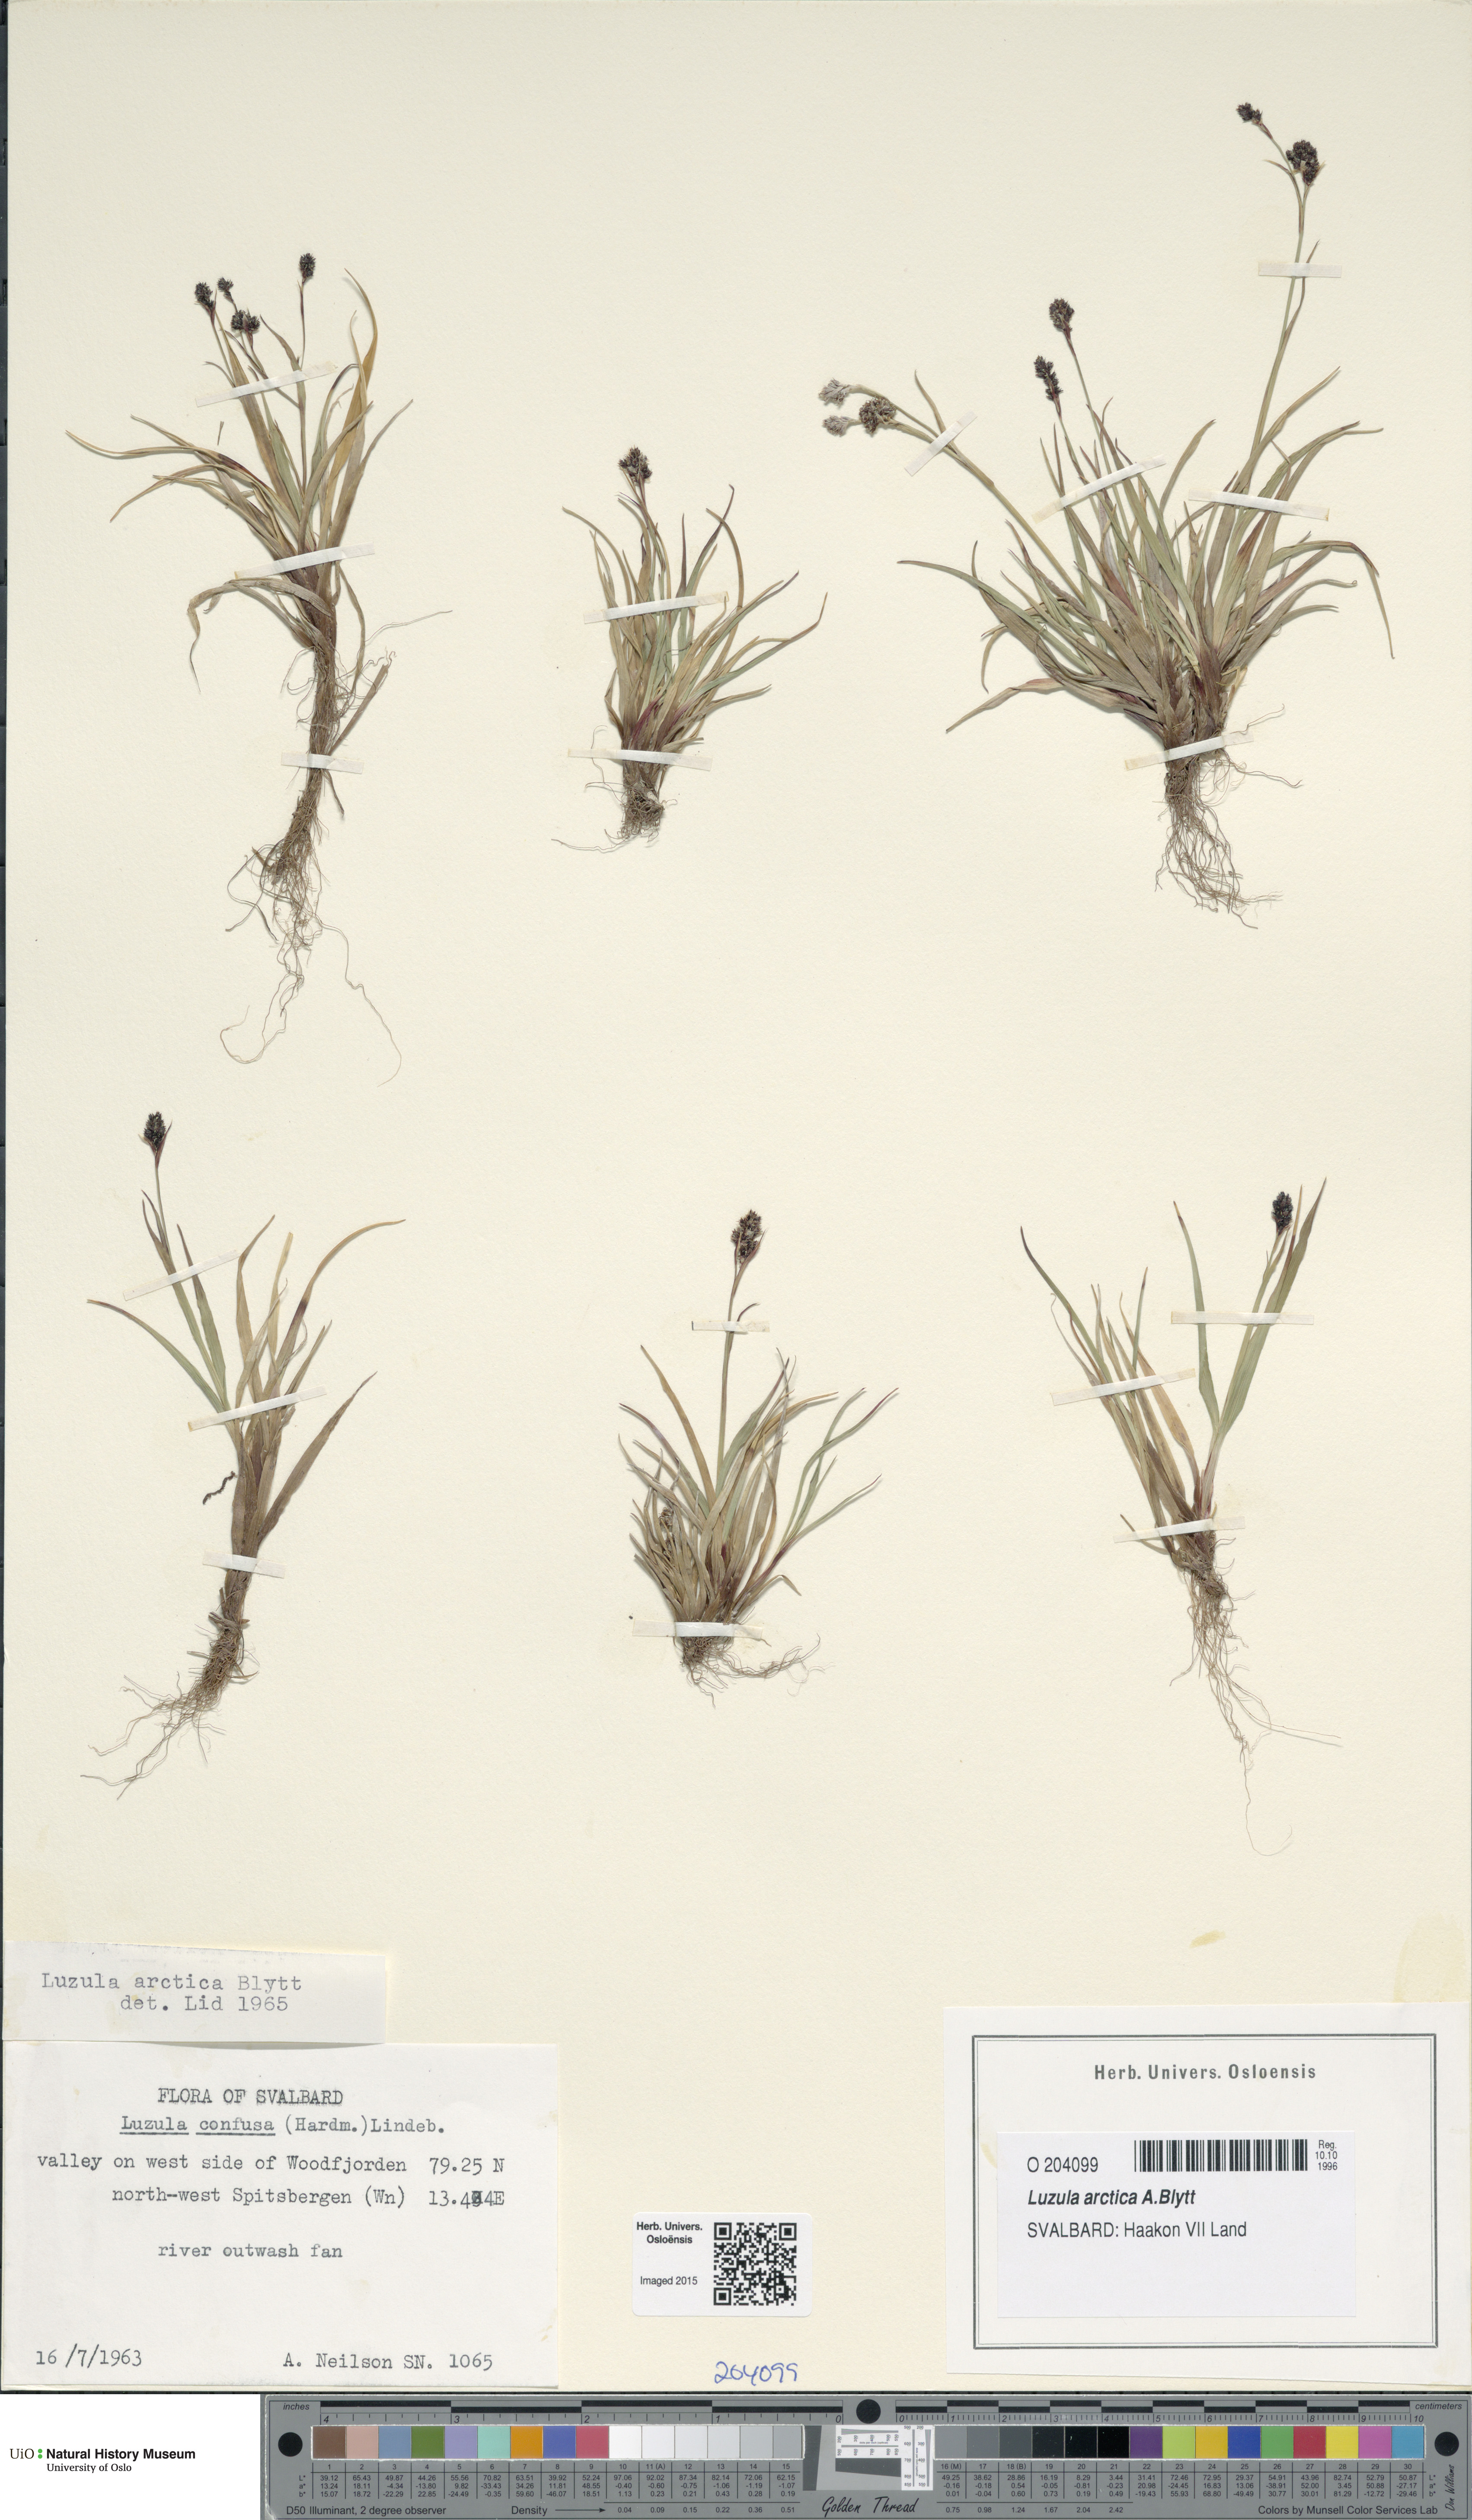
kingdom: Plantae
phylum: Tracheophyta
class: Liliopsida
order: Poales
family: Juncaceae
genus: Luzula
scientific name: Luzula nivalis
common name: Arctic woodrush
